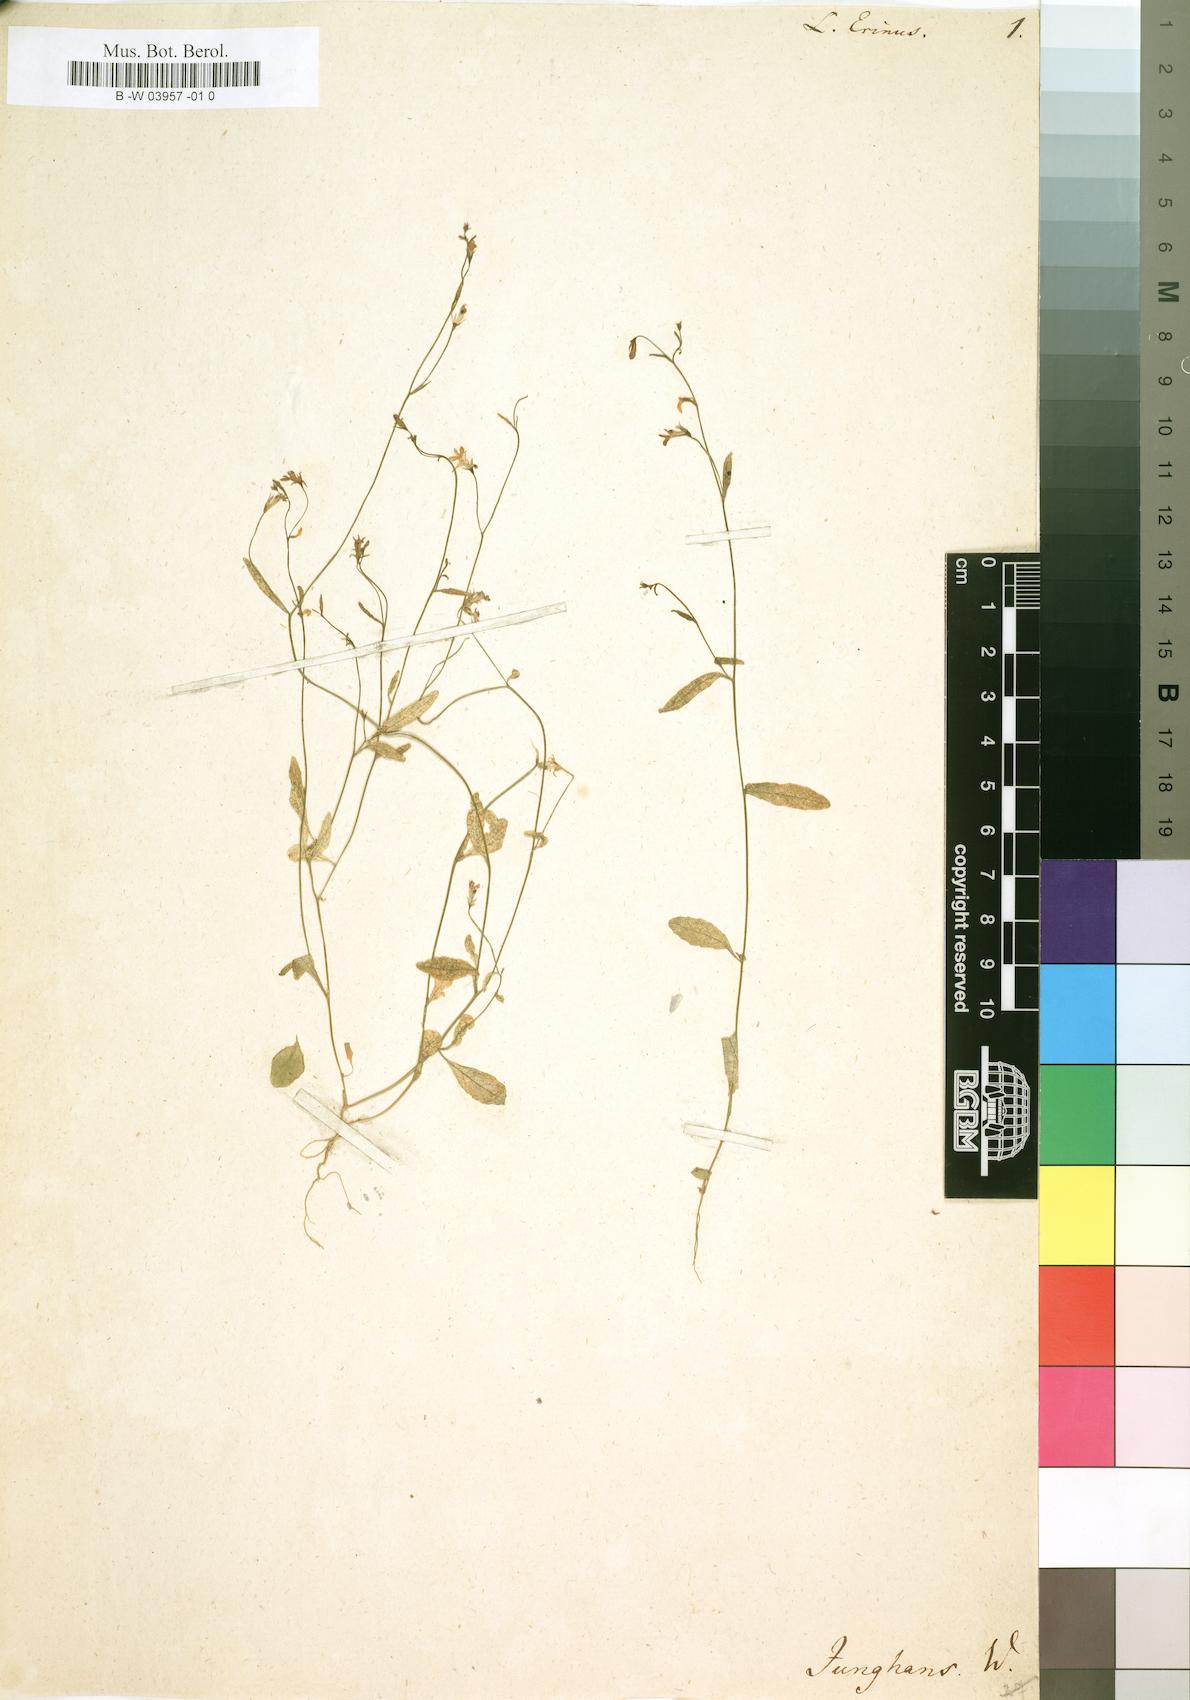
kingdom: Plantae
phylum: Tracheophyta
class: Magnoliopsida
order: Asterales
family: Campanulaceae
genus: Lobelia
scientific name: Lobelia erinus
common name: Edging lobelia
